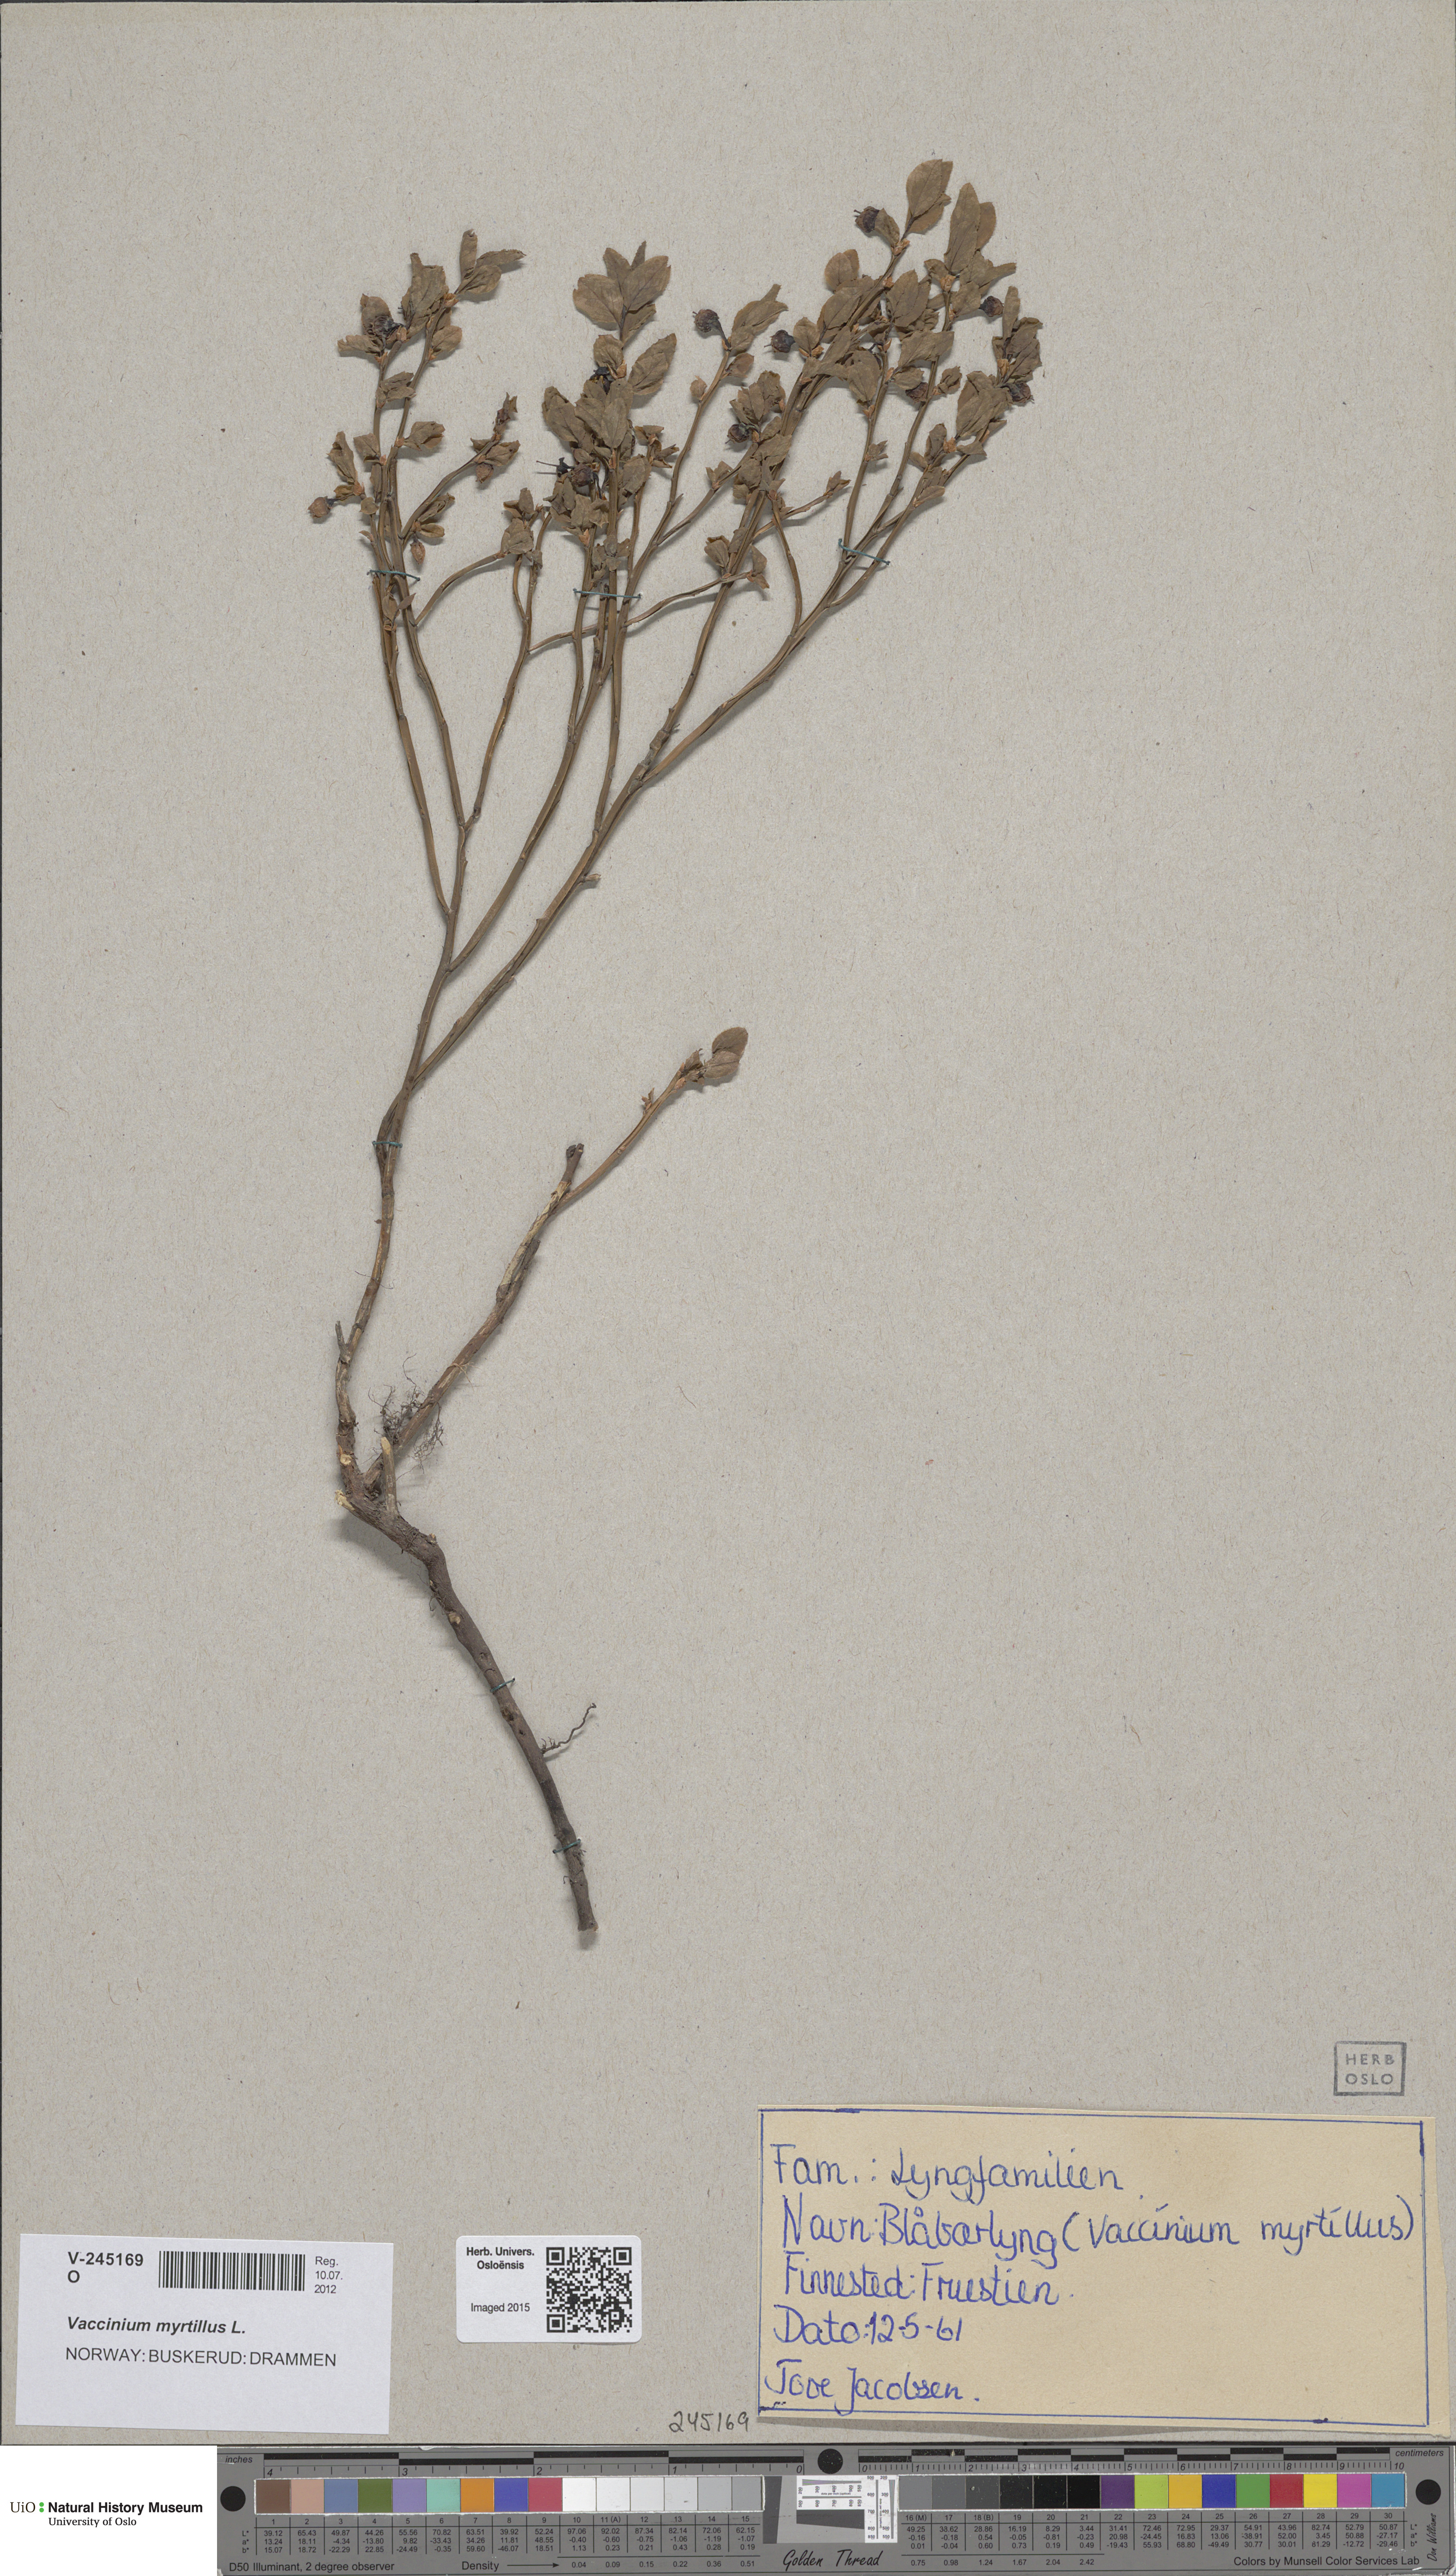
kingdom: Plantae
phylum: Tracheophyta
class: Magnoliopsida
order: Ericales
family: Ericaceae
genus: Vaccinium
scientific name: Vaccinium myrtillus
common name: Bilberry
